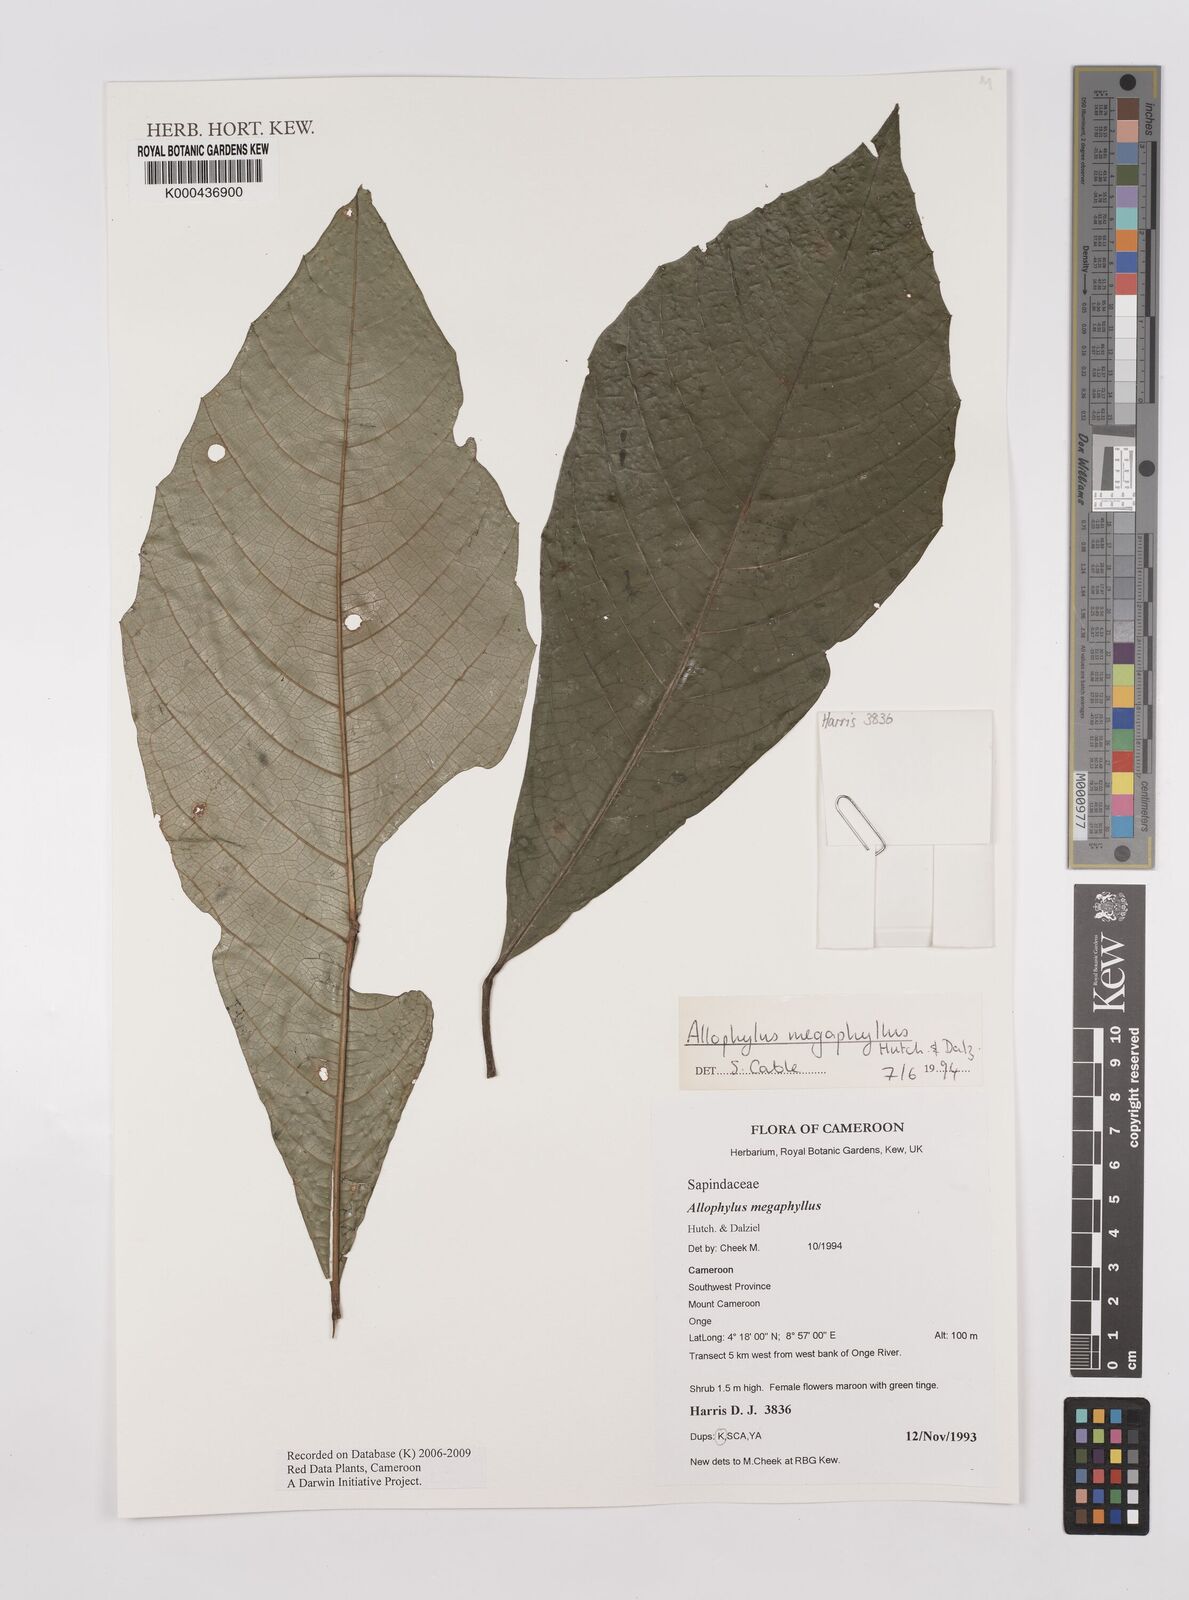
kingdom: Plantae
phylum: Tracheophyta
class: Magnoliopsida
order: Sapindales
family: Sapindaceae
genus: Allophylus
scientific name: Allophylus megaphyllus
